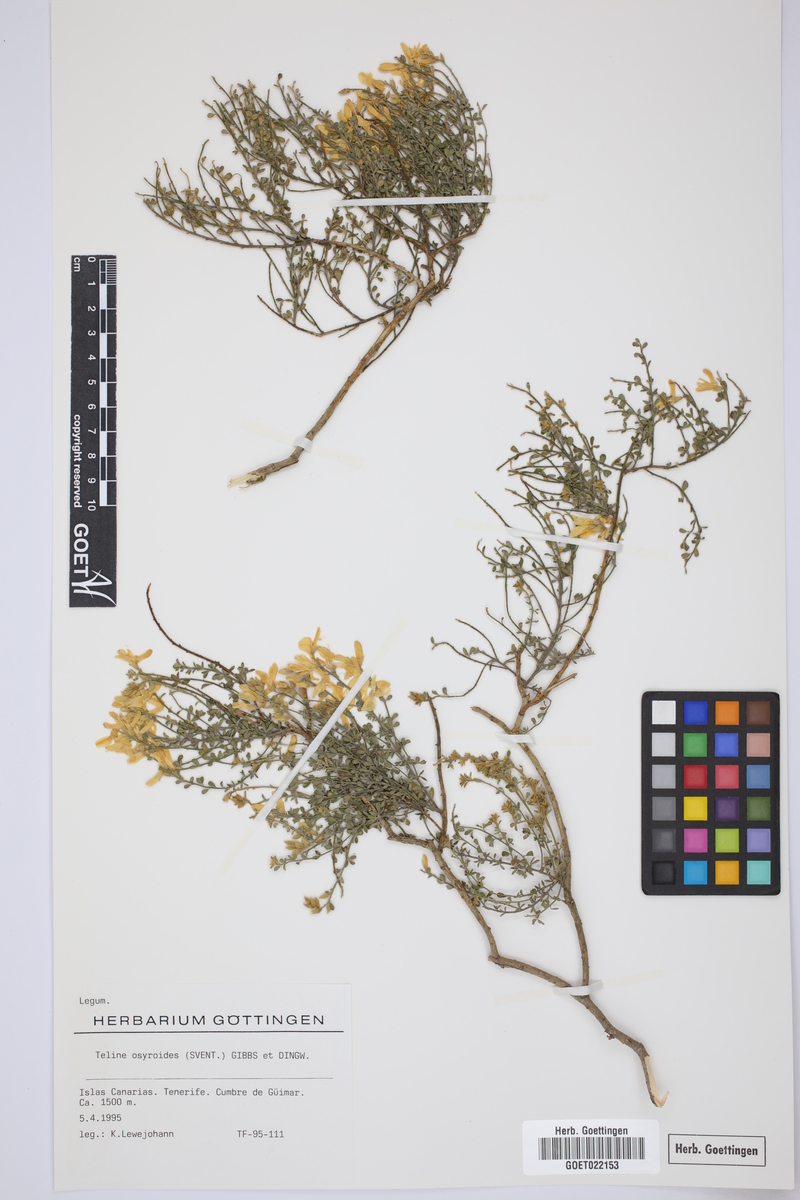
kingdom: Plantae
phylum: Tracheophyta
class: Magnoliopsida
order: Fabales
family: Fabaceae
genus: Cytisus
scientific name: Cytisus osyroides
